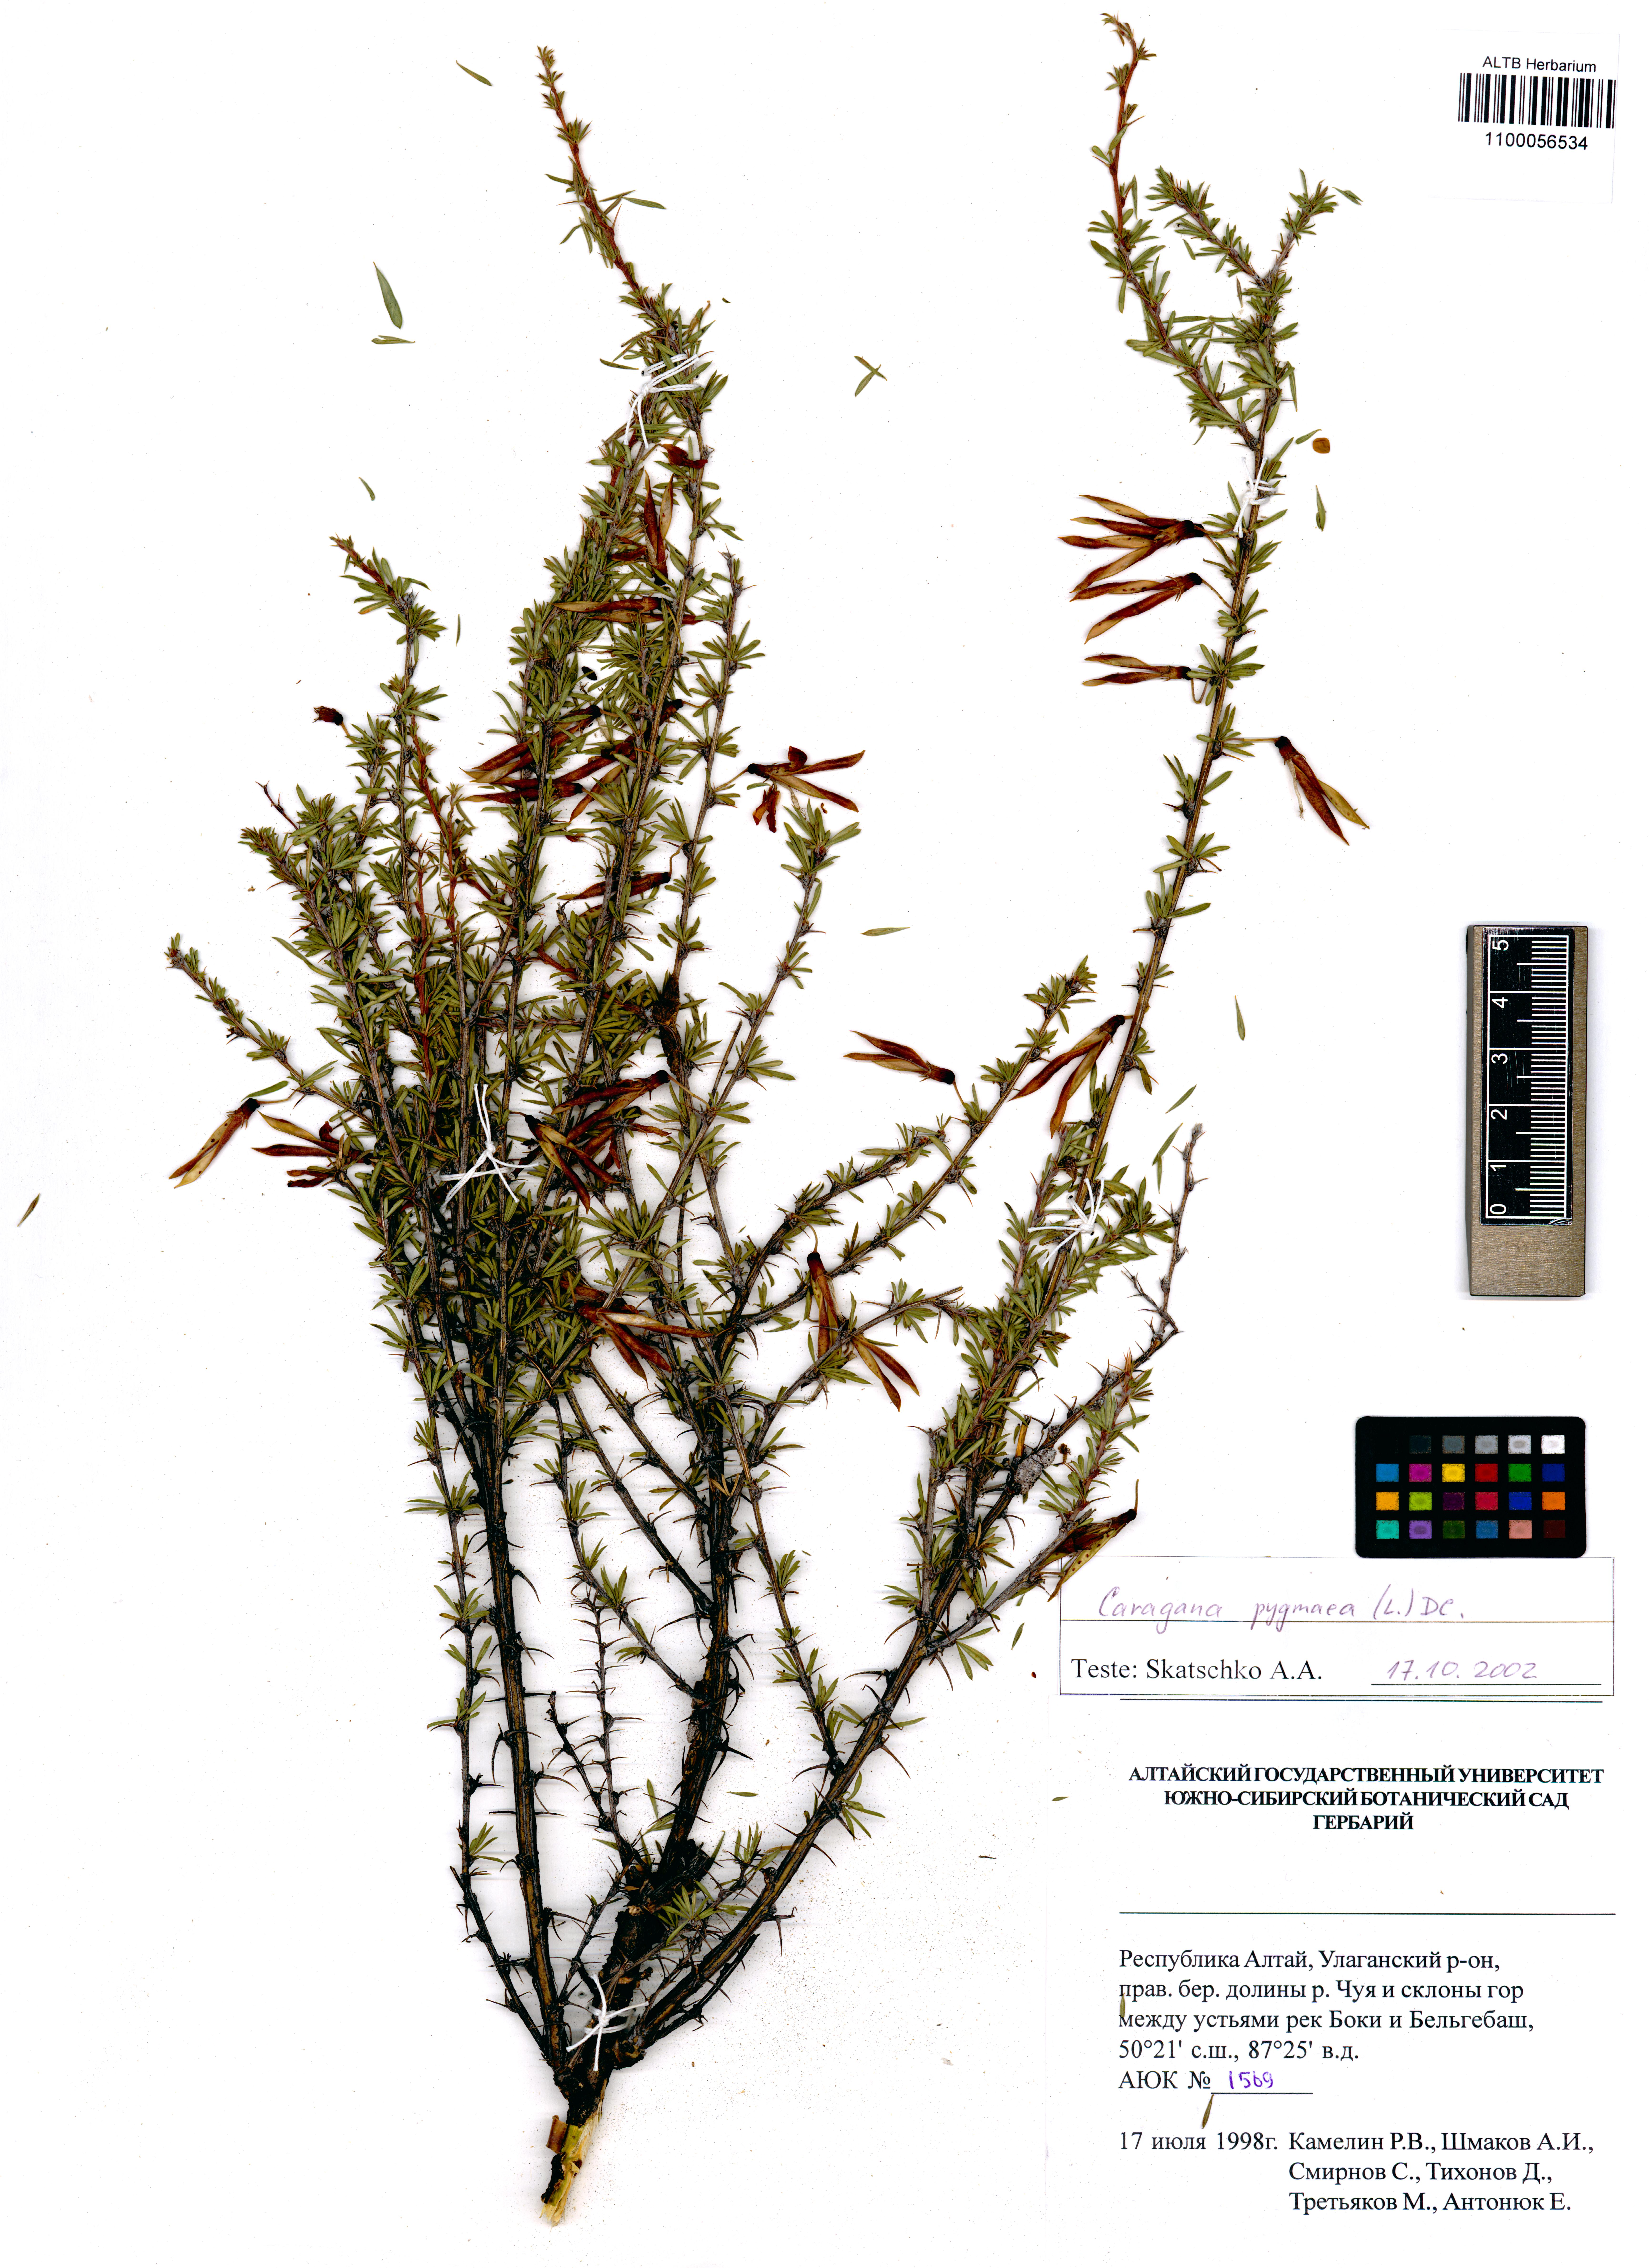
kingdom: Plantae
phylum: Tracheophyta
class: Magnoliopsida
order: Fabales
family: Fabaceae
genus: Caragana
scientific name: Caragana pygmaea
